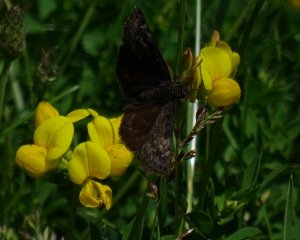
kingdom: Animalia
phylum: Arthropoda
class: Insecta
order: Lepidoptera
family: Hesperiidae
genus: Gesta
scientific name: Gesta
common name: Wild Indigo Duskywing
